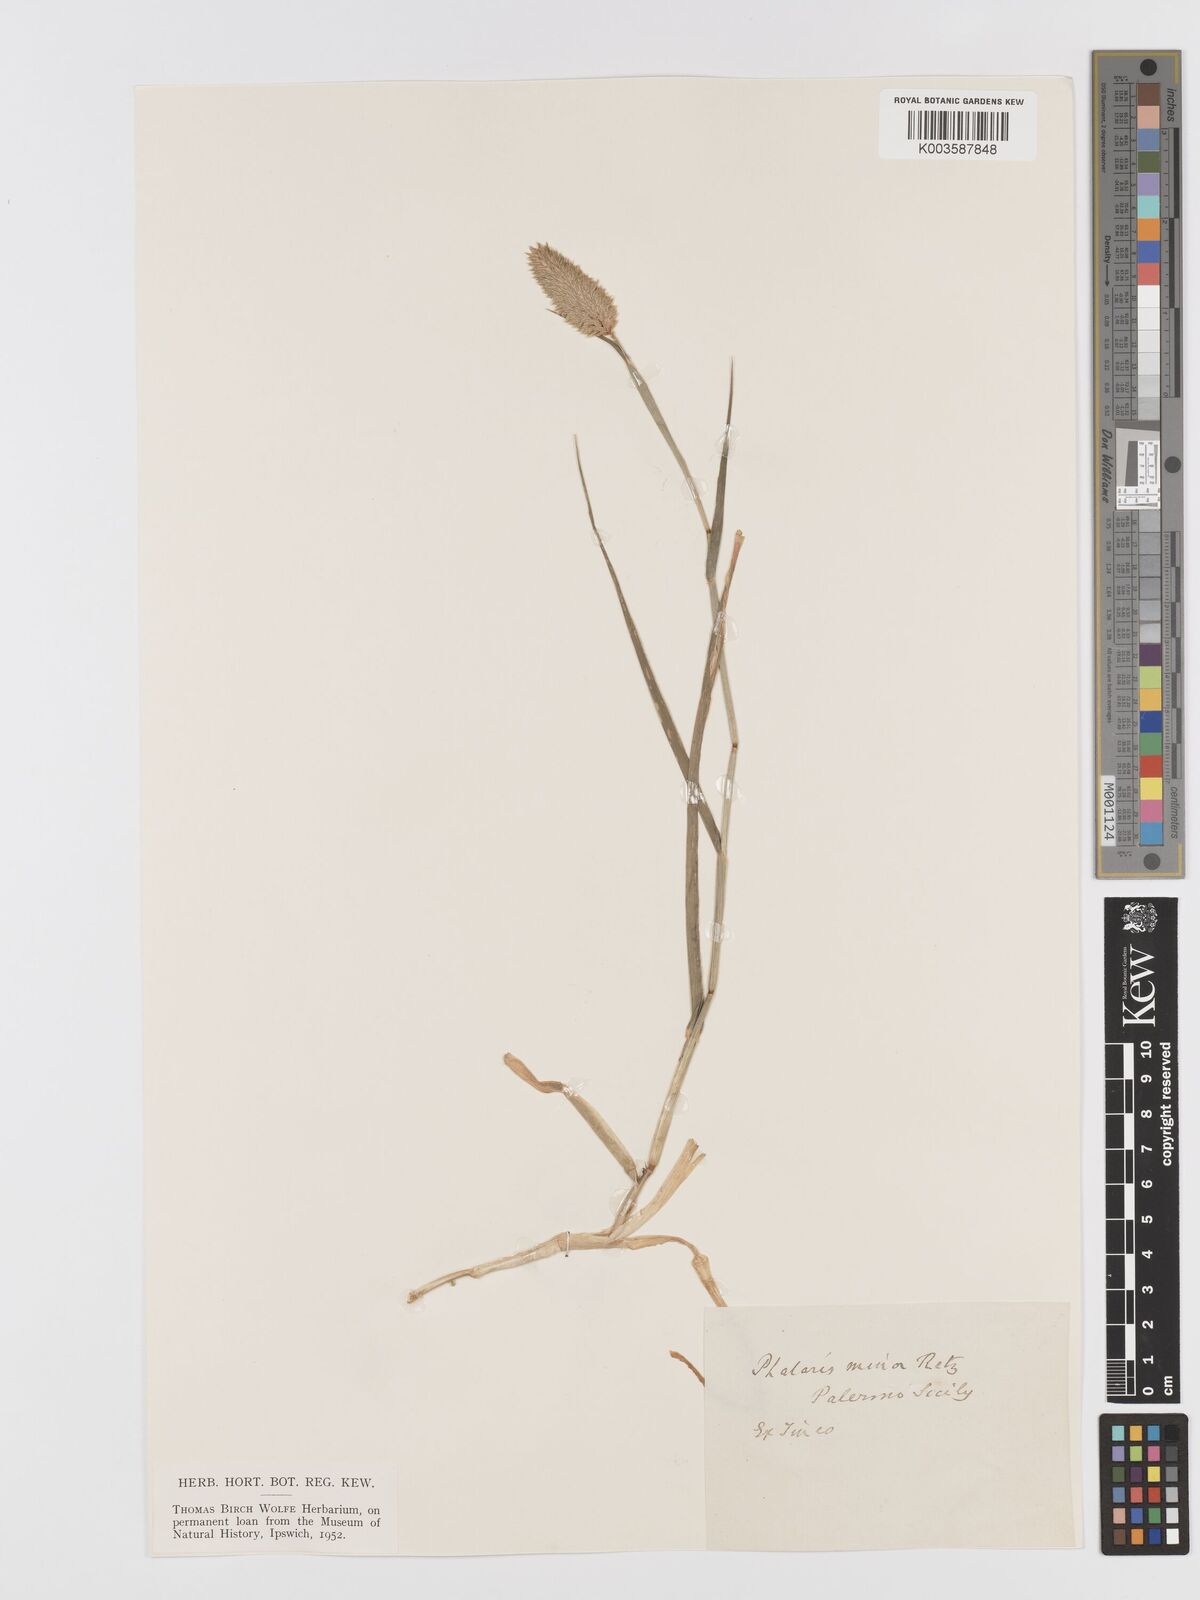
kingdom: Plantae
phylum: Tracheophyta
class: Liliopsida
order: Poales
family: Poaceae
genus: Phalaris
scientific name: Phalaris minor
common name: Littleseed canarygrass
